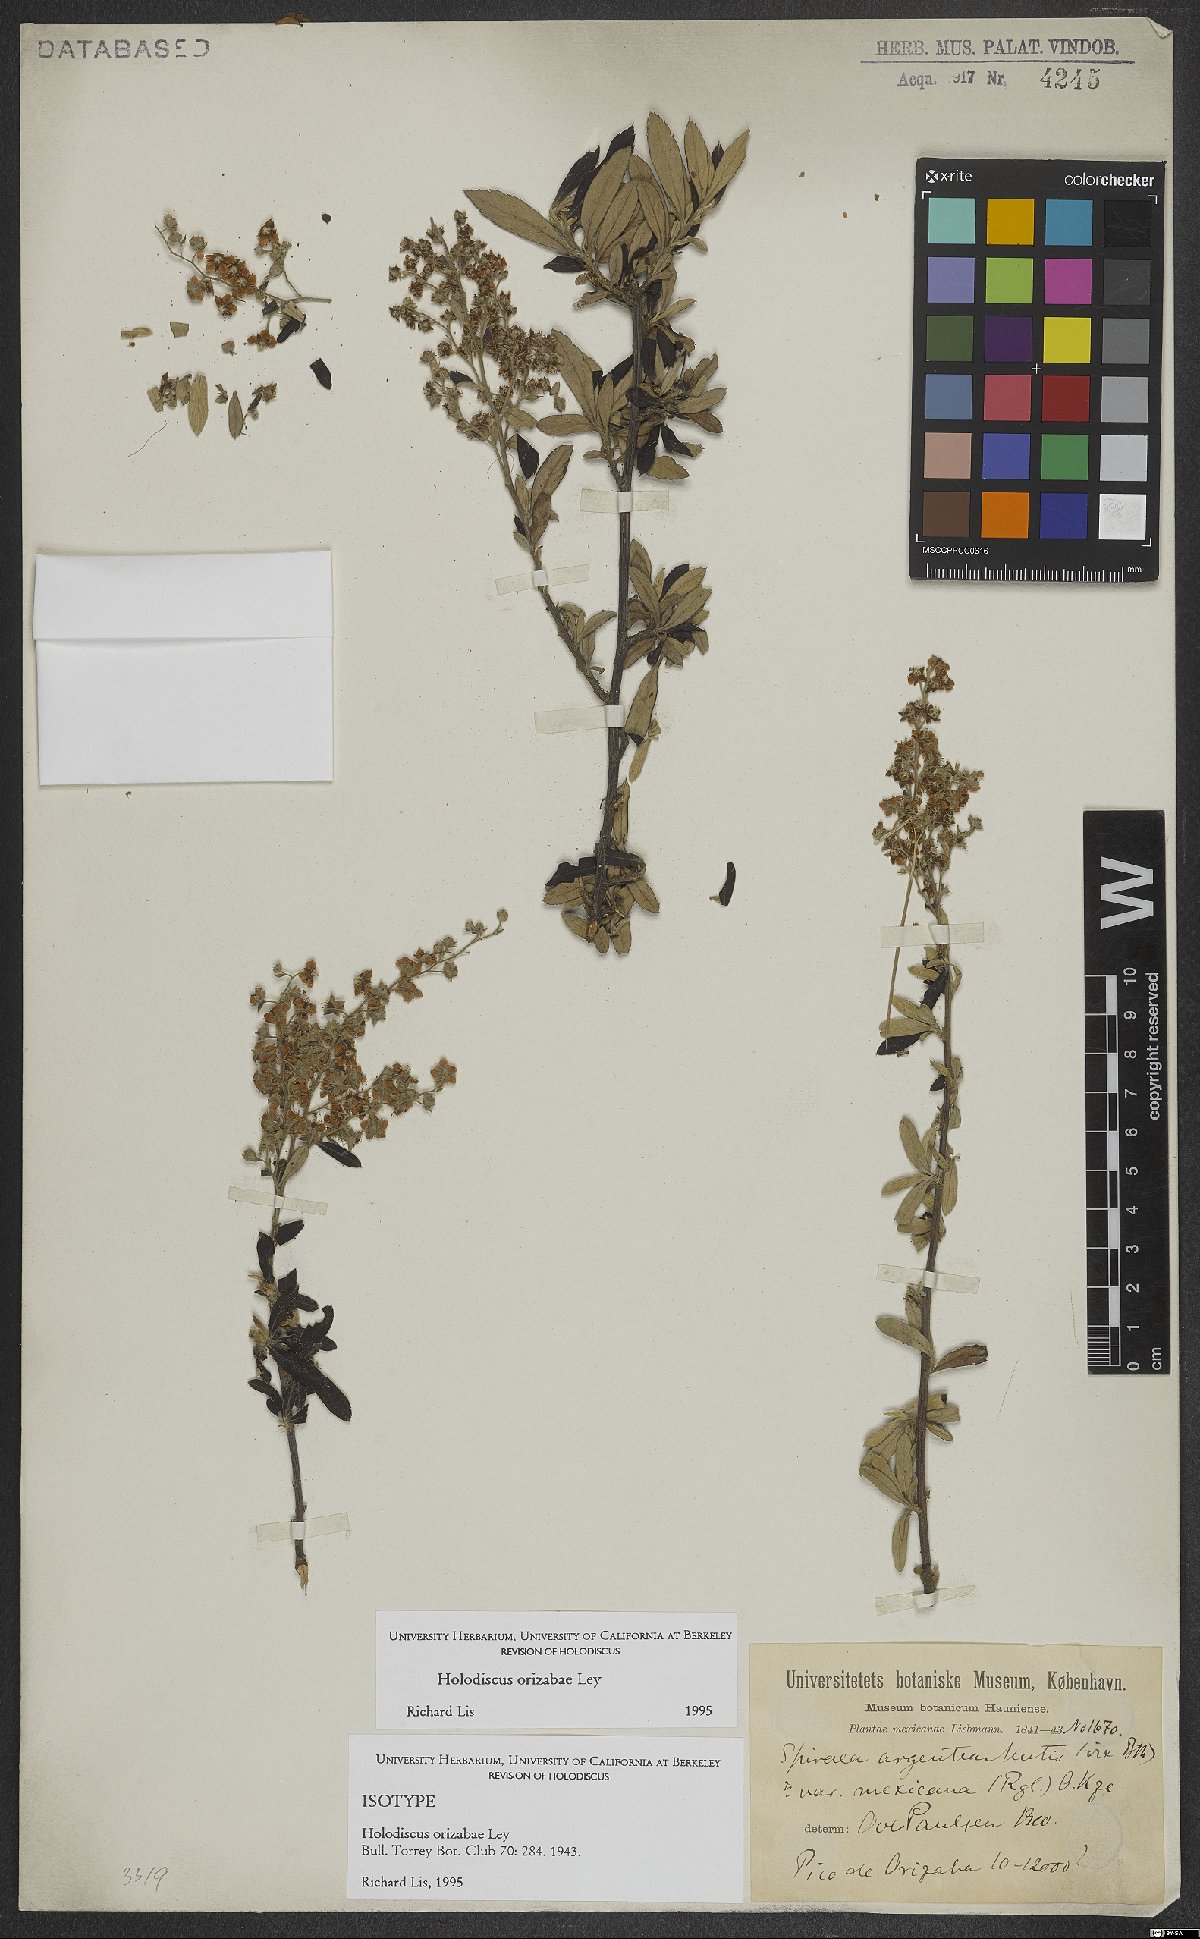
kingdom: Plantae
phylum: Tracheophyta
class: Magnoliopsida
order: Rosales
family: Rosaceae
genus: Holodiscus
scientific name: Holodiscus orizabae
